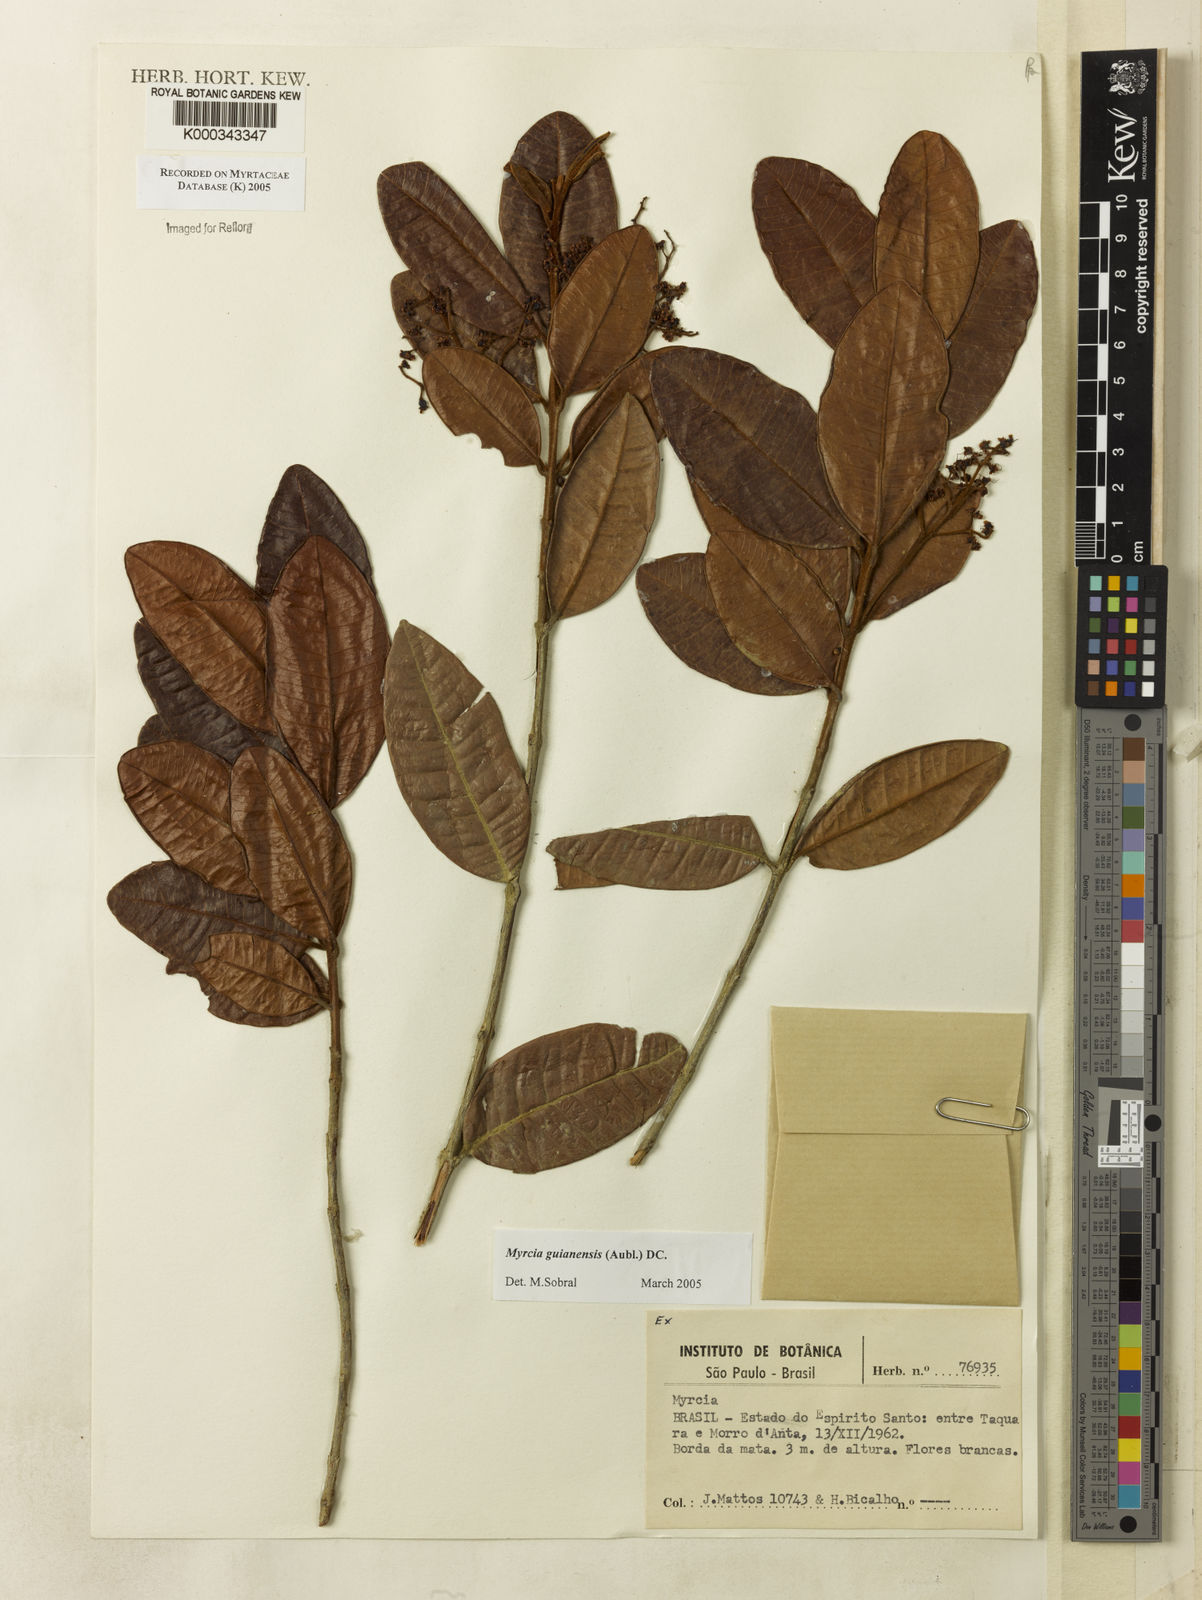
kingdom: Plantae
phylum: Tracheophyta
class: Magnoliopsida
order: Myrtales
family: Myrtaceae
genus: Myrcia
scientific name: Myrcia guianensis
